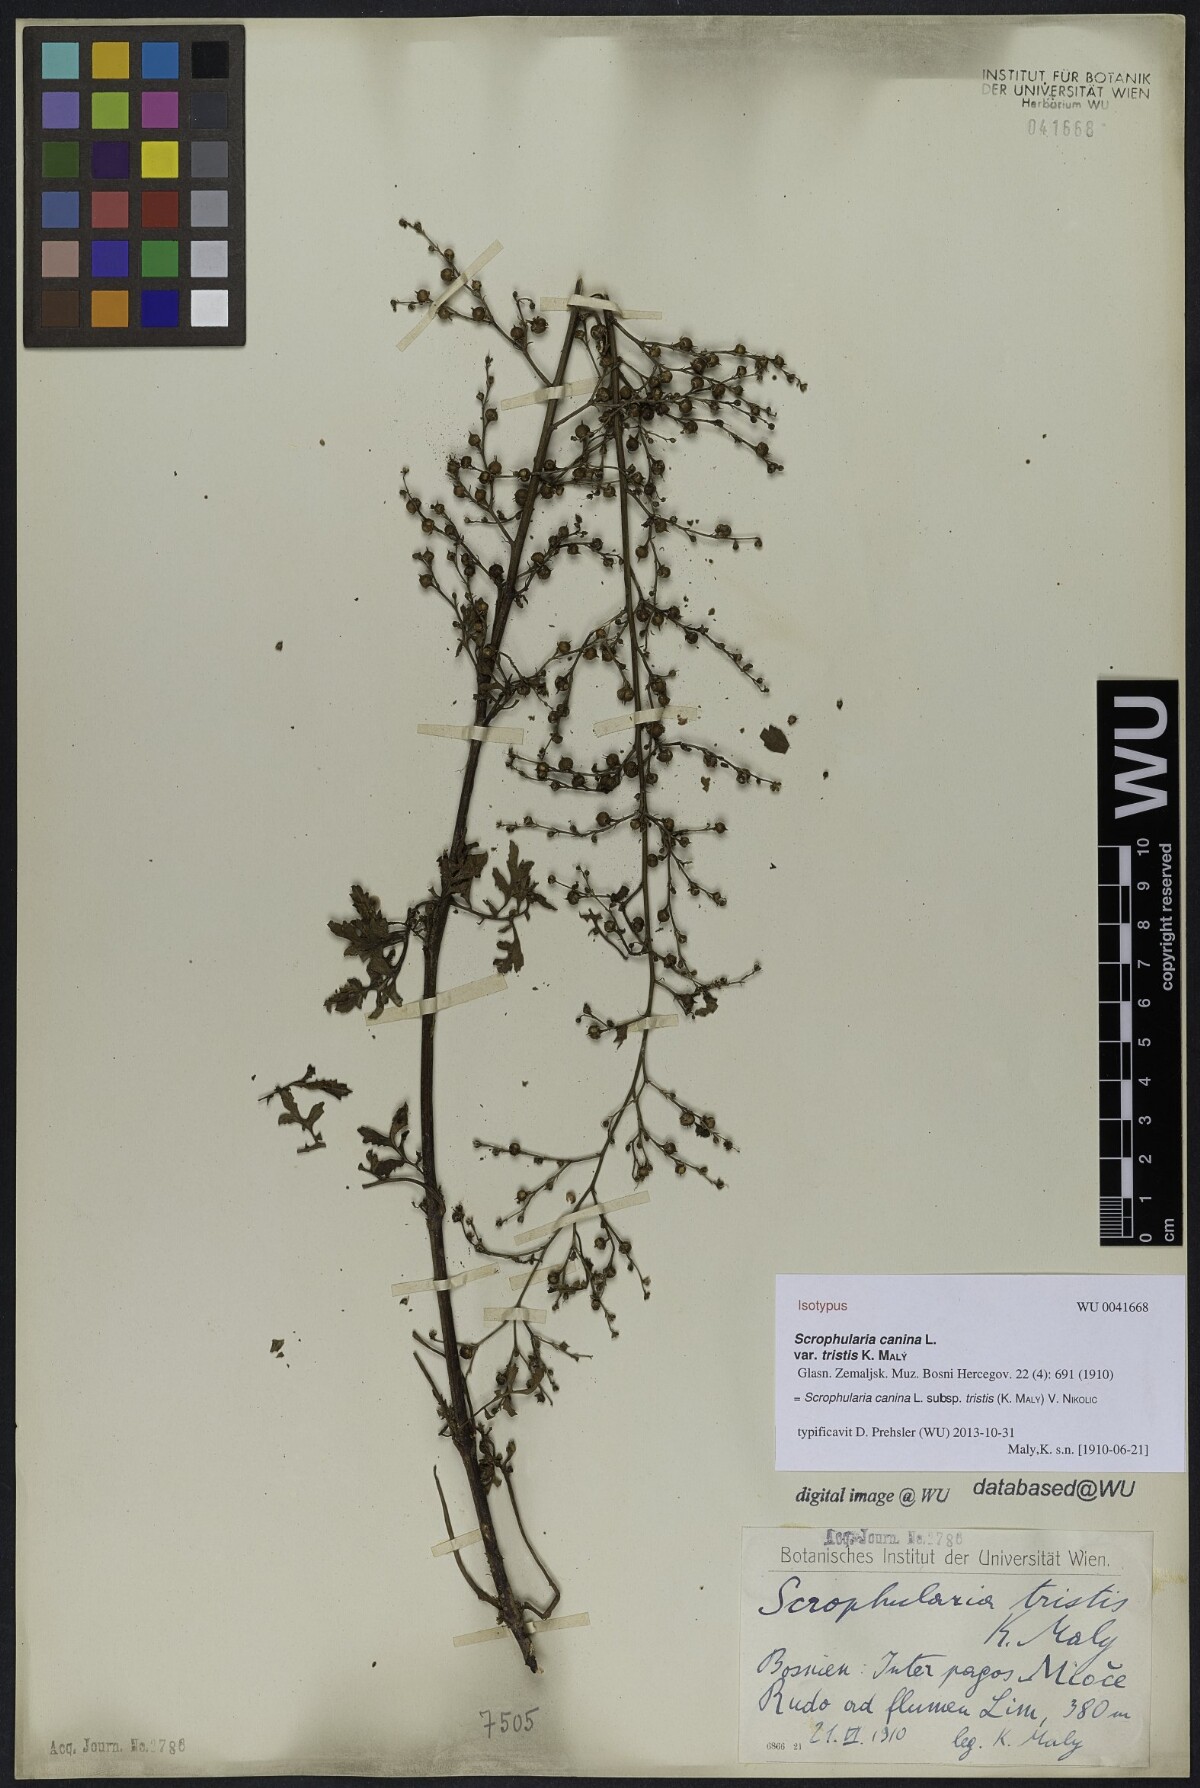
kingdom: Plantae
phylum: Tracheophyta
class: Magnoliopsida
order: Lamiales
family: Scrophulariaceae
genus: Scrophularia
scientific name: Scrophularia canina
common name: French figwort
